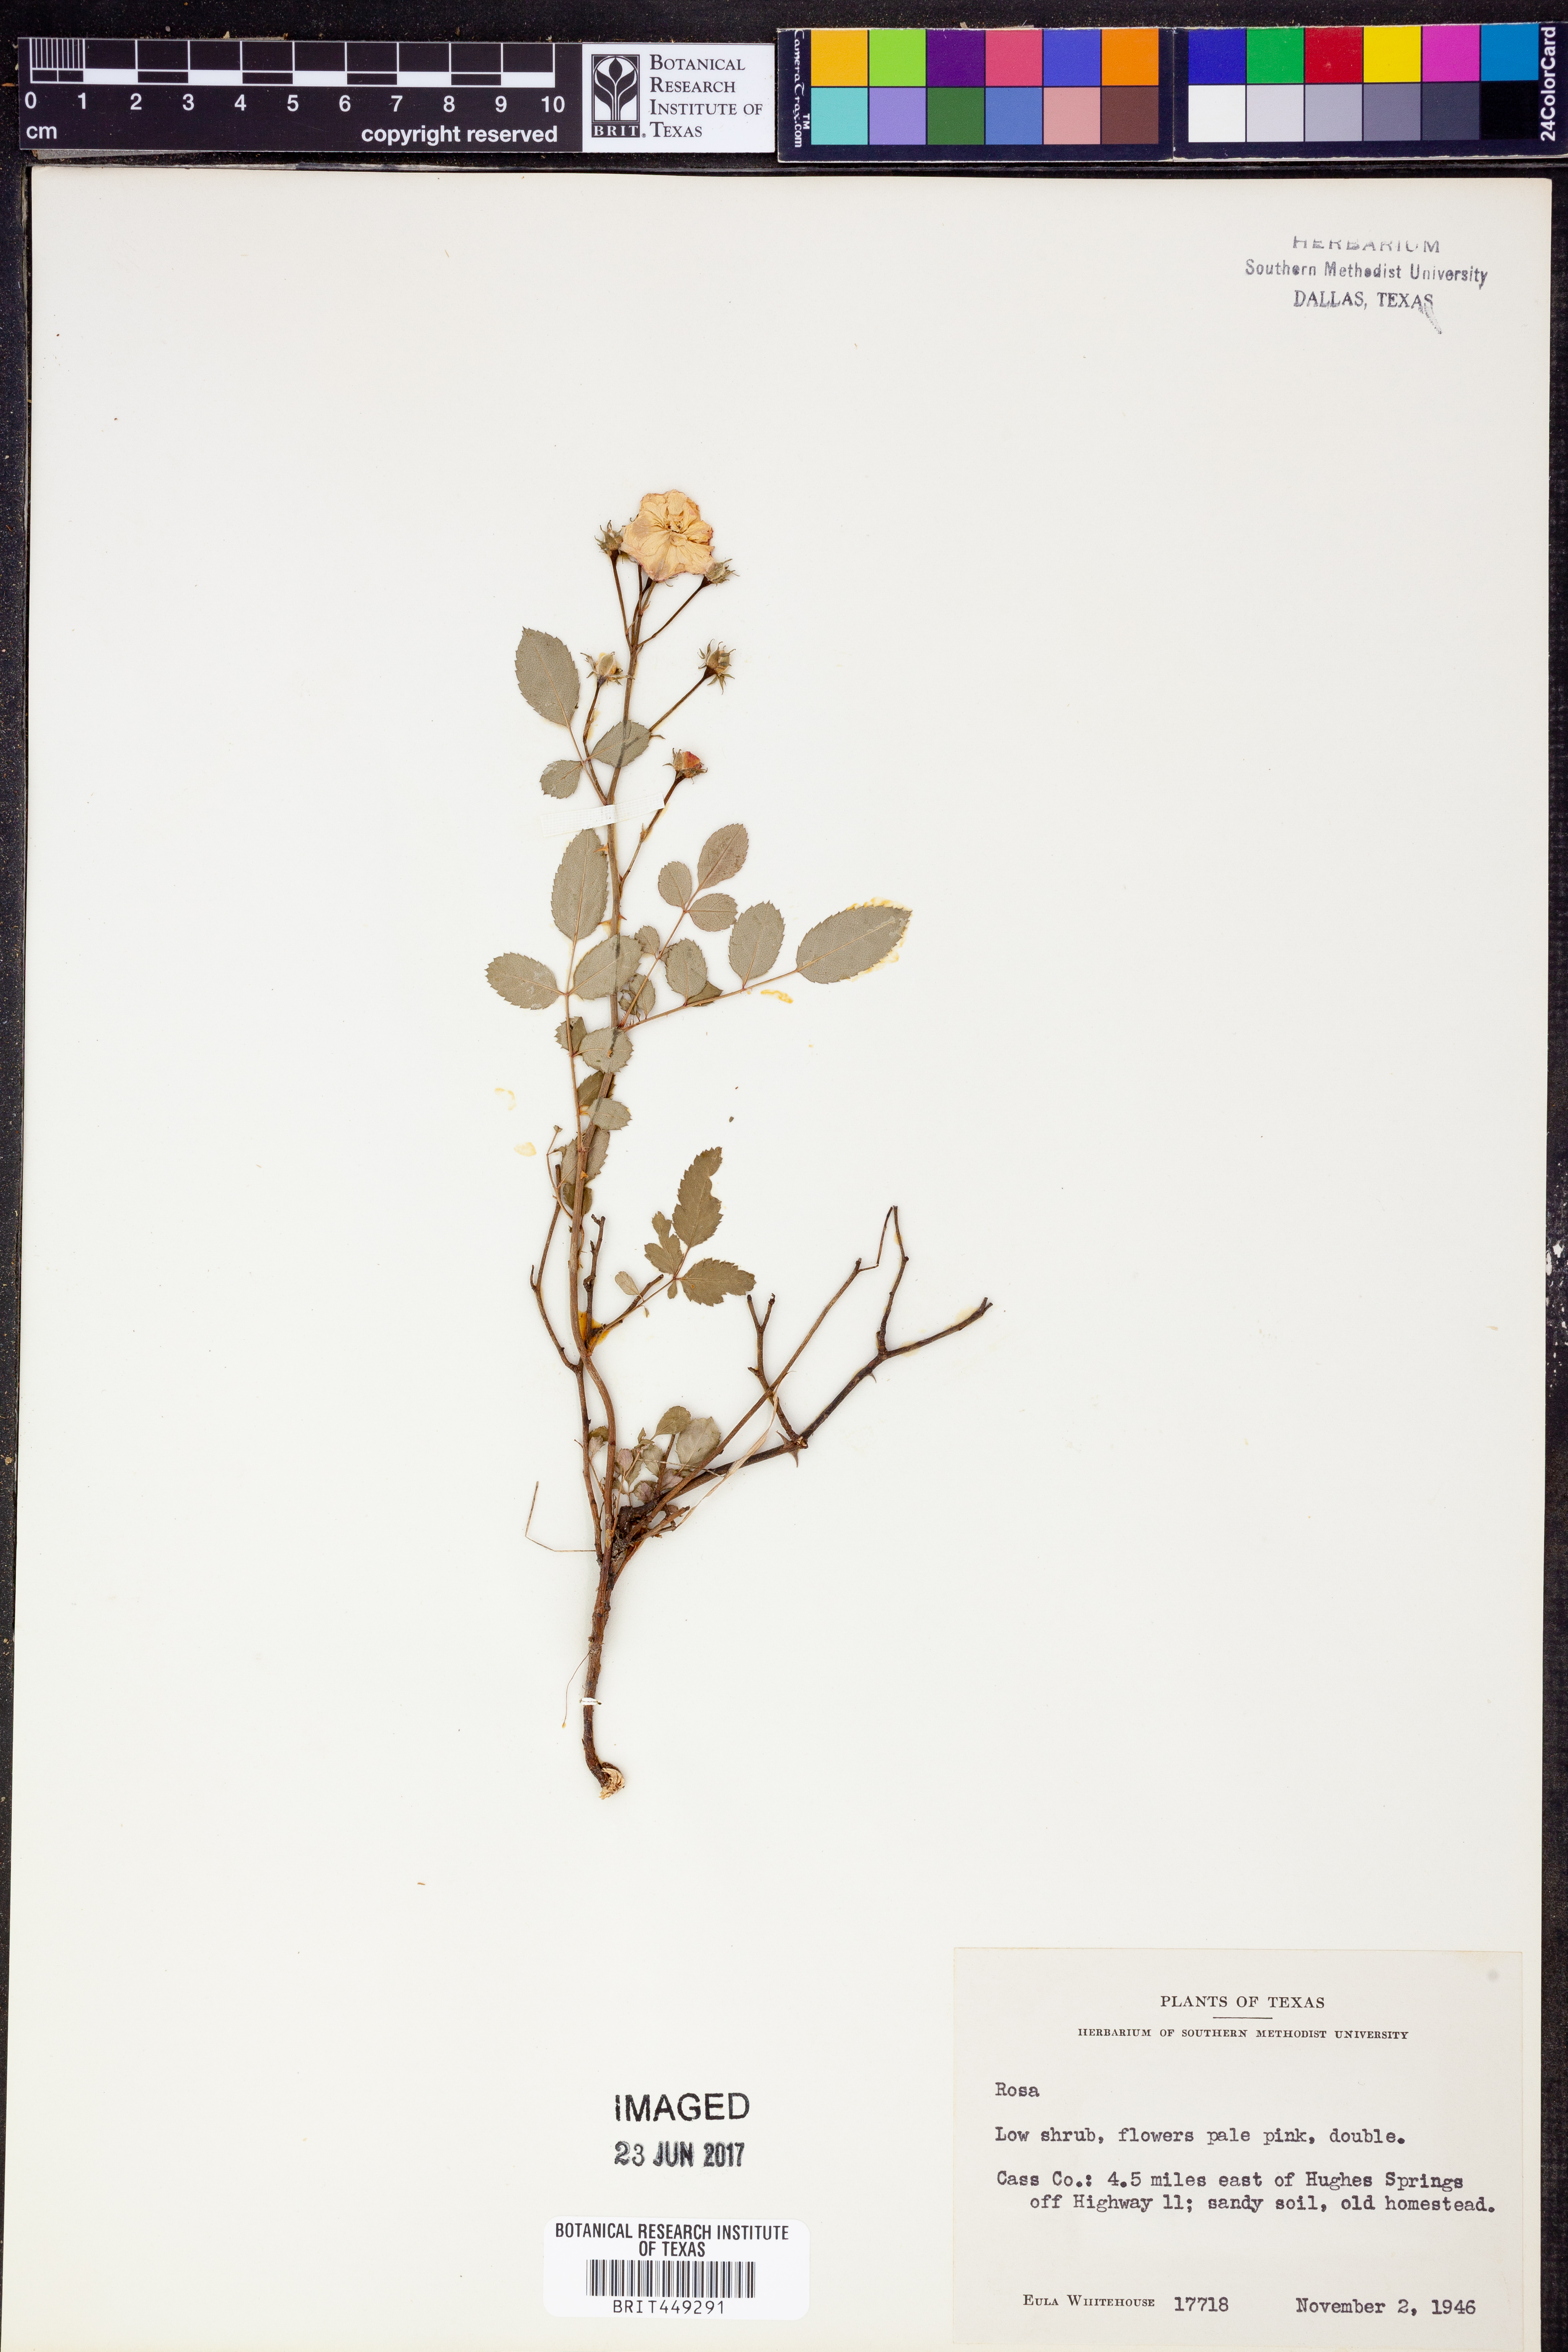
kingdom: Plantae
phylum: Tracheophyta
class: Magnoliopsida
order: Rosales
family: Rosaceae
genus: Rosa
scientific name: Rosa
